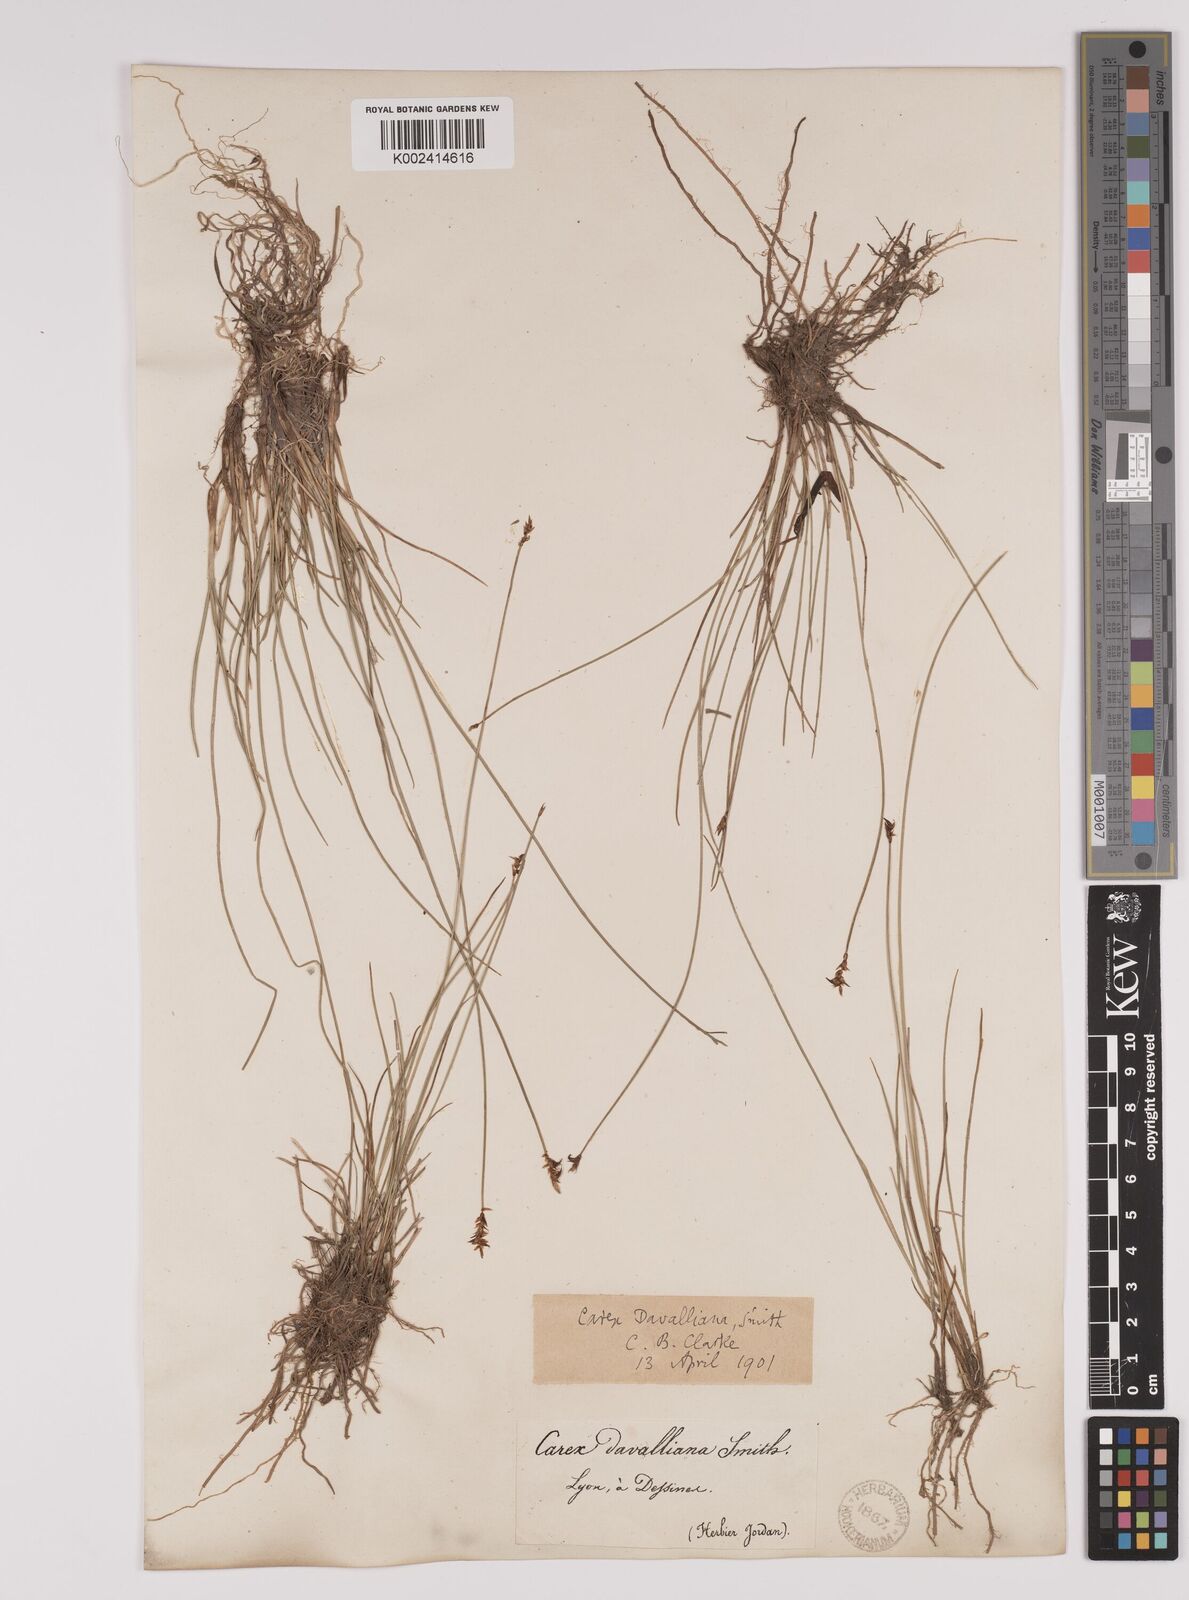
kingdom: Plantae
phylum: Tracheophyta
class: Liliopsida
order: Poales
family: Cyperaceae
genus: Carex
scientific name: Carex davalliana
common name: Davall's sedge
